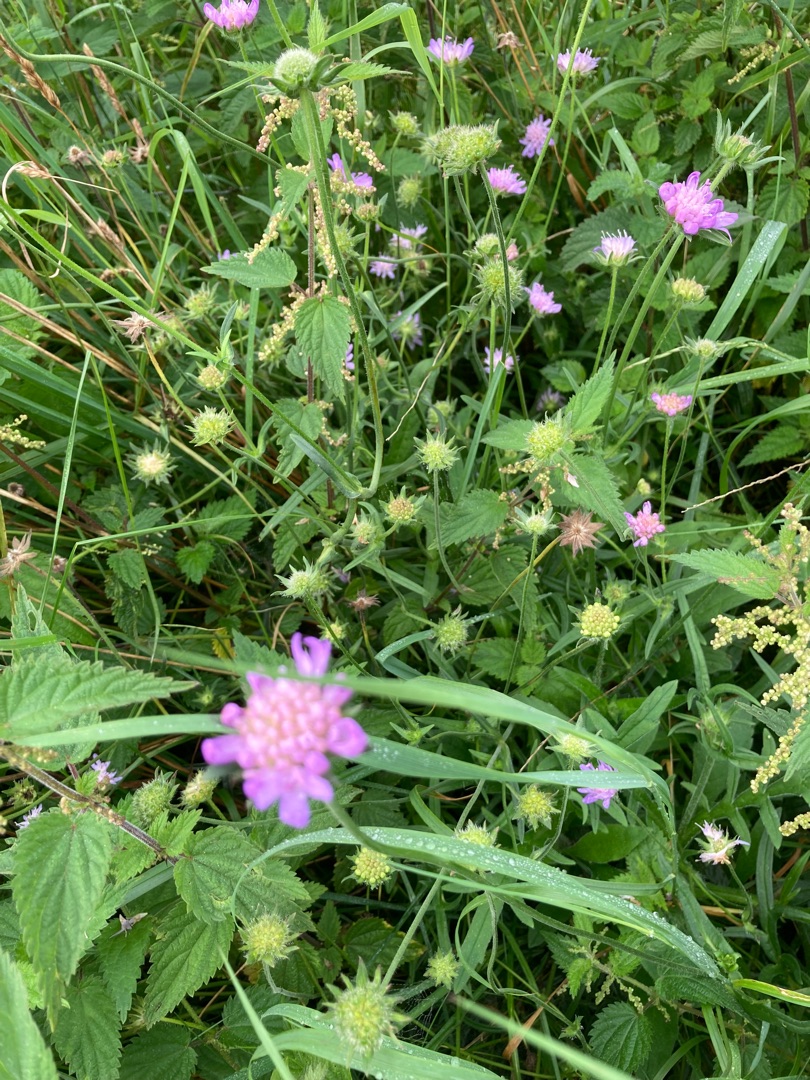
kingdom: Plantae
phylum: Tracheophyta
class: Magnoliopsida
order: Dipsacales
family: Caprifoliaceae
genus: Knautia
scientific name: Knautia arvensis
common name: Blåhat
